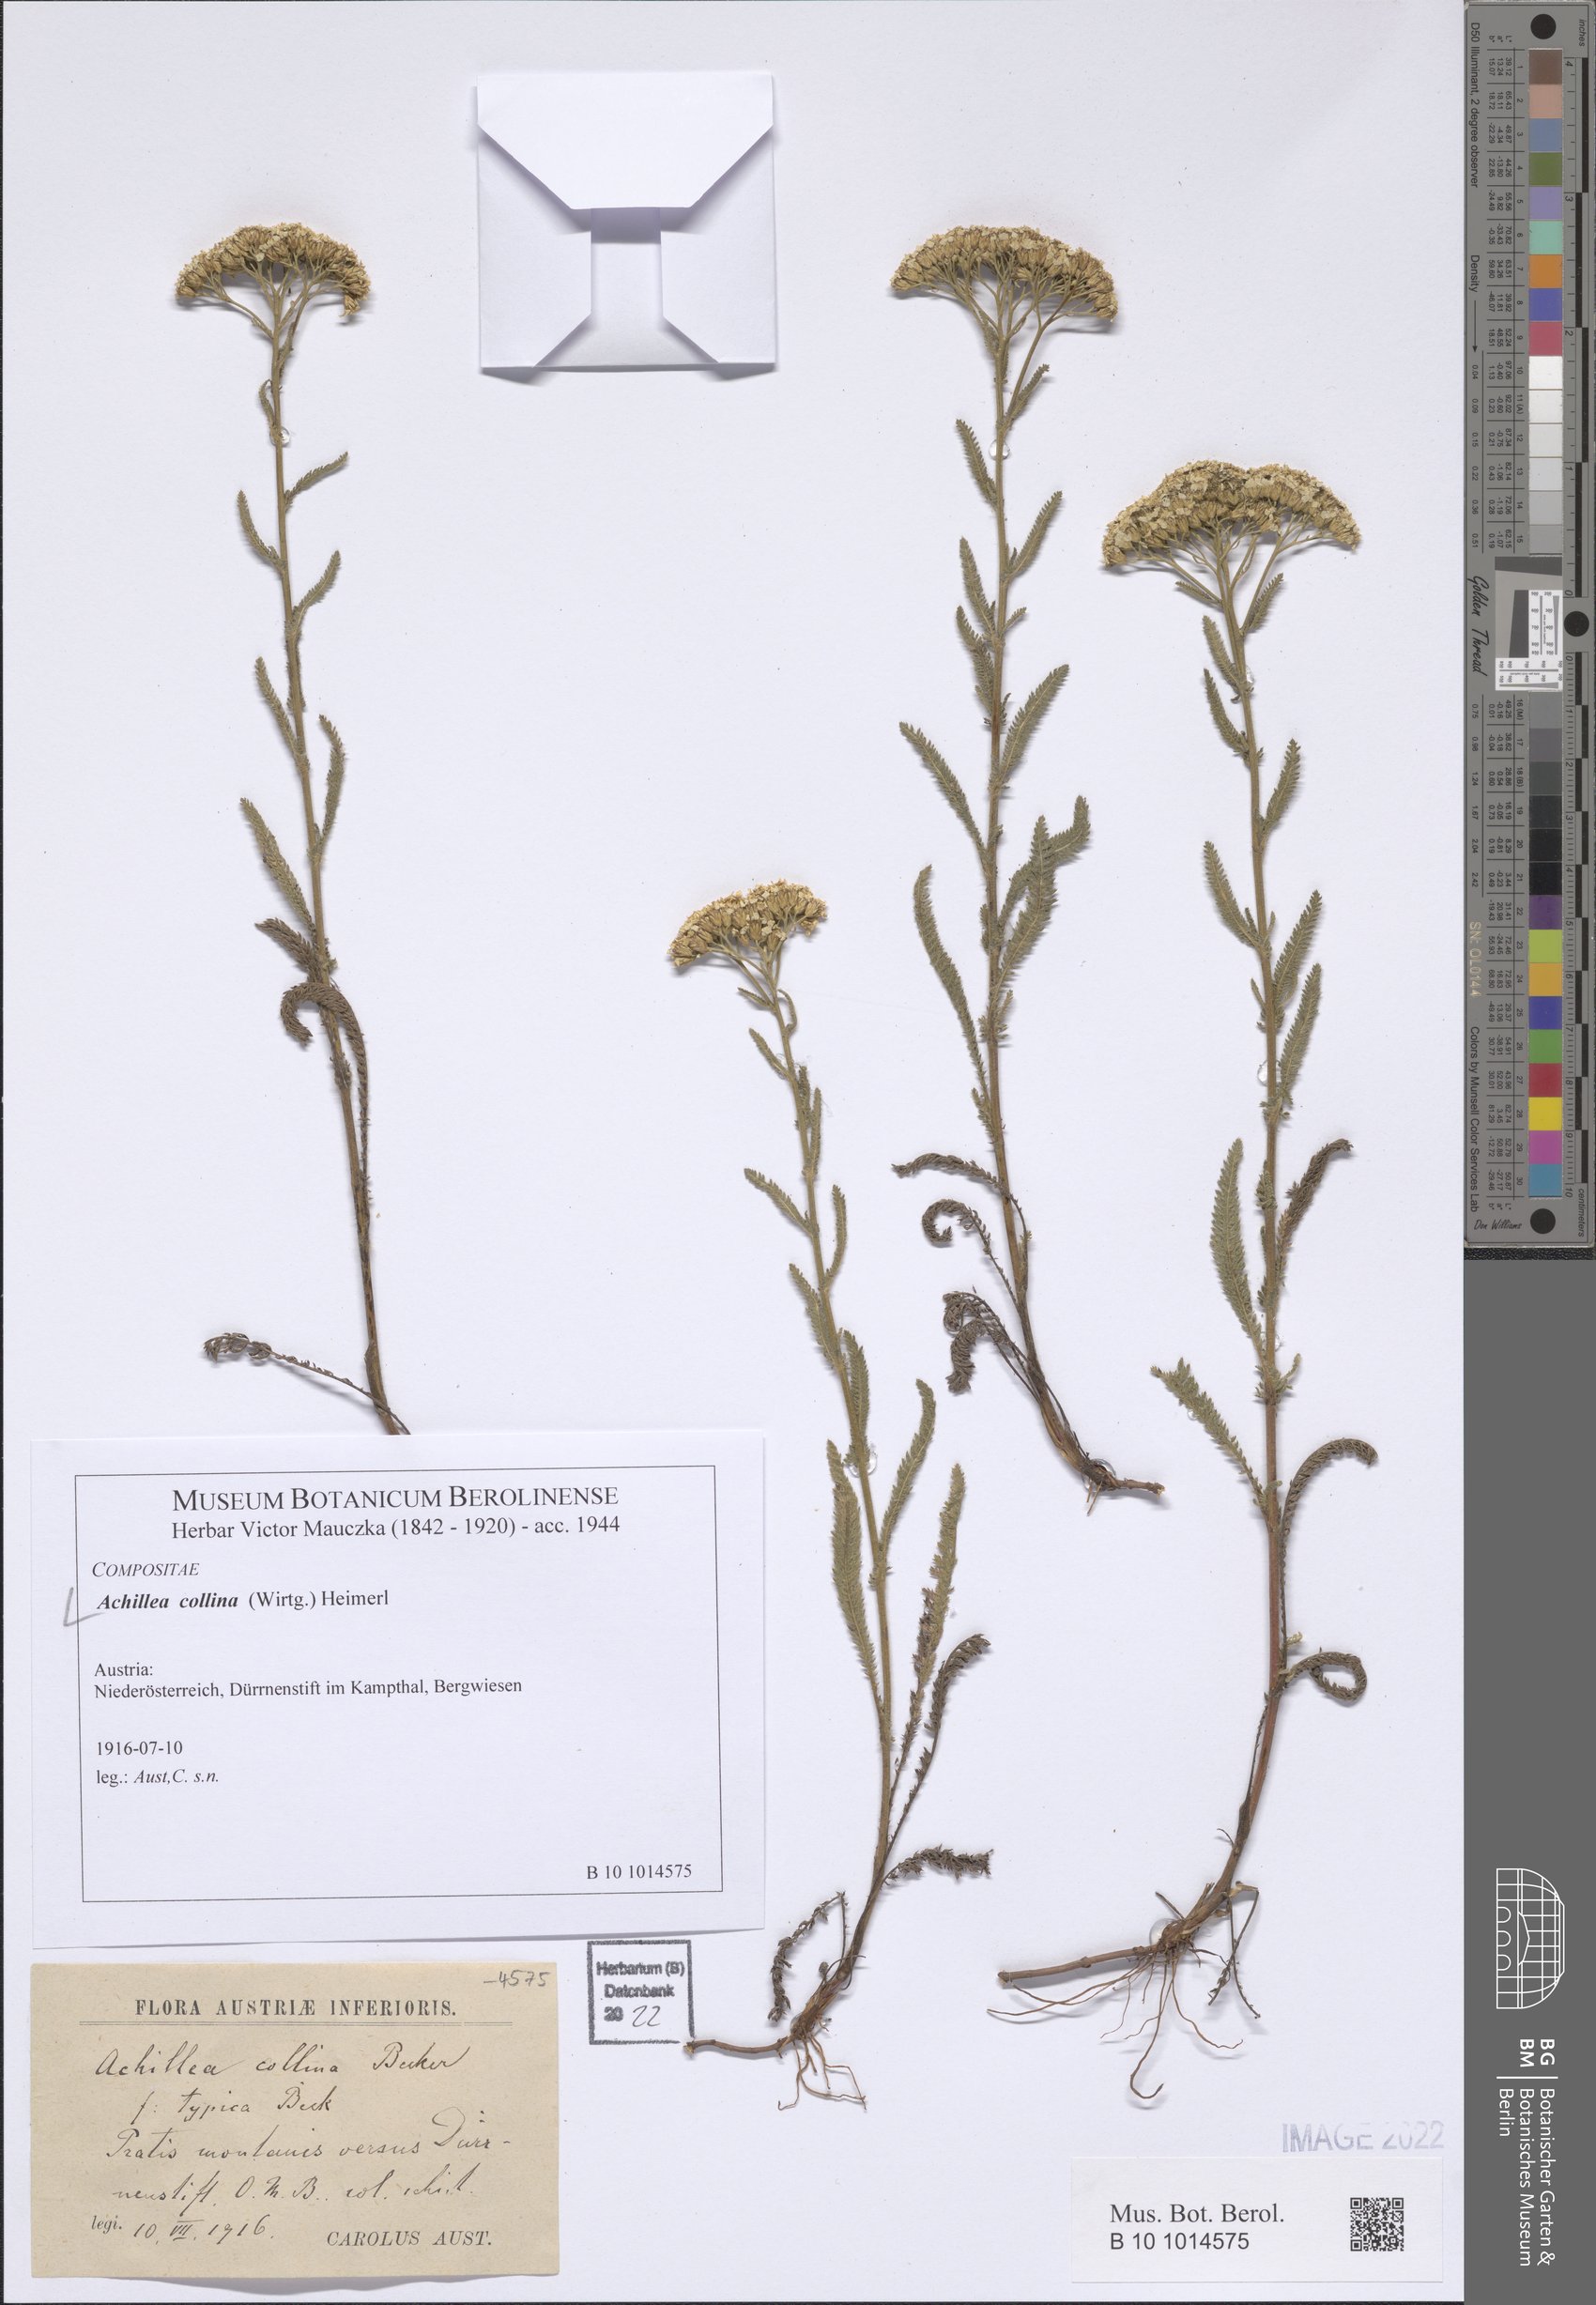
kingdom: Plantae
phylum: Tracheophyta
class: Magnoliopsida
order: Asterales
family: Asteraceae
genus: Achillea
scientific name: Achillea collina
